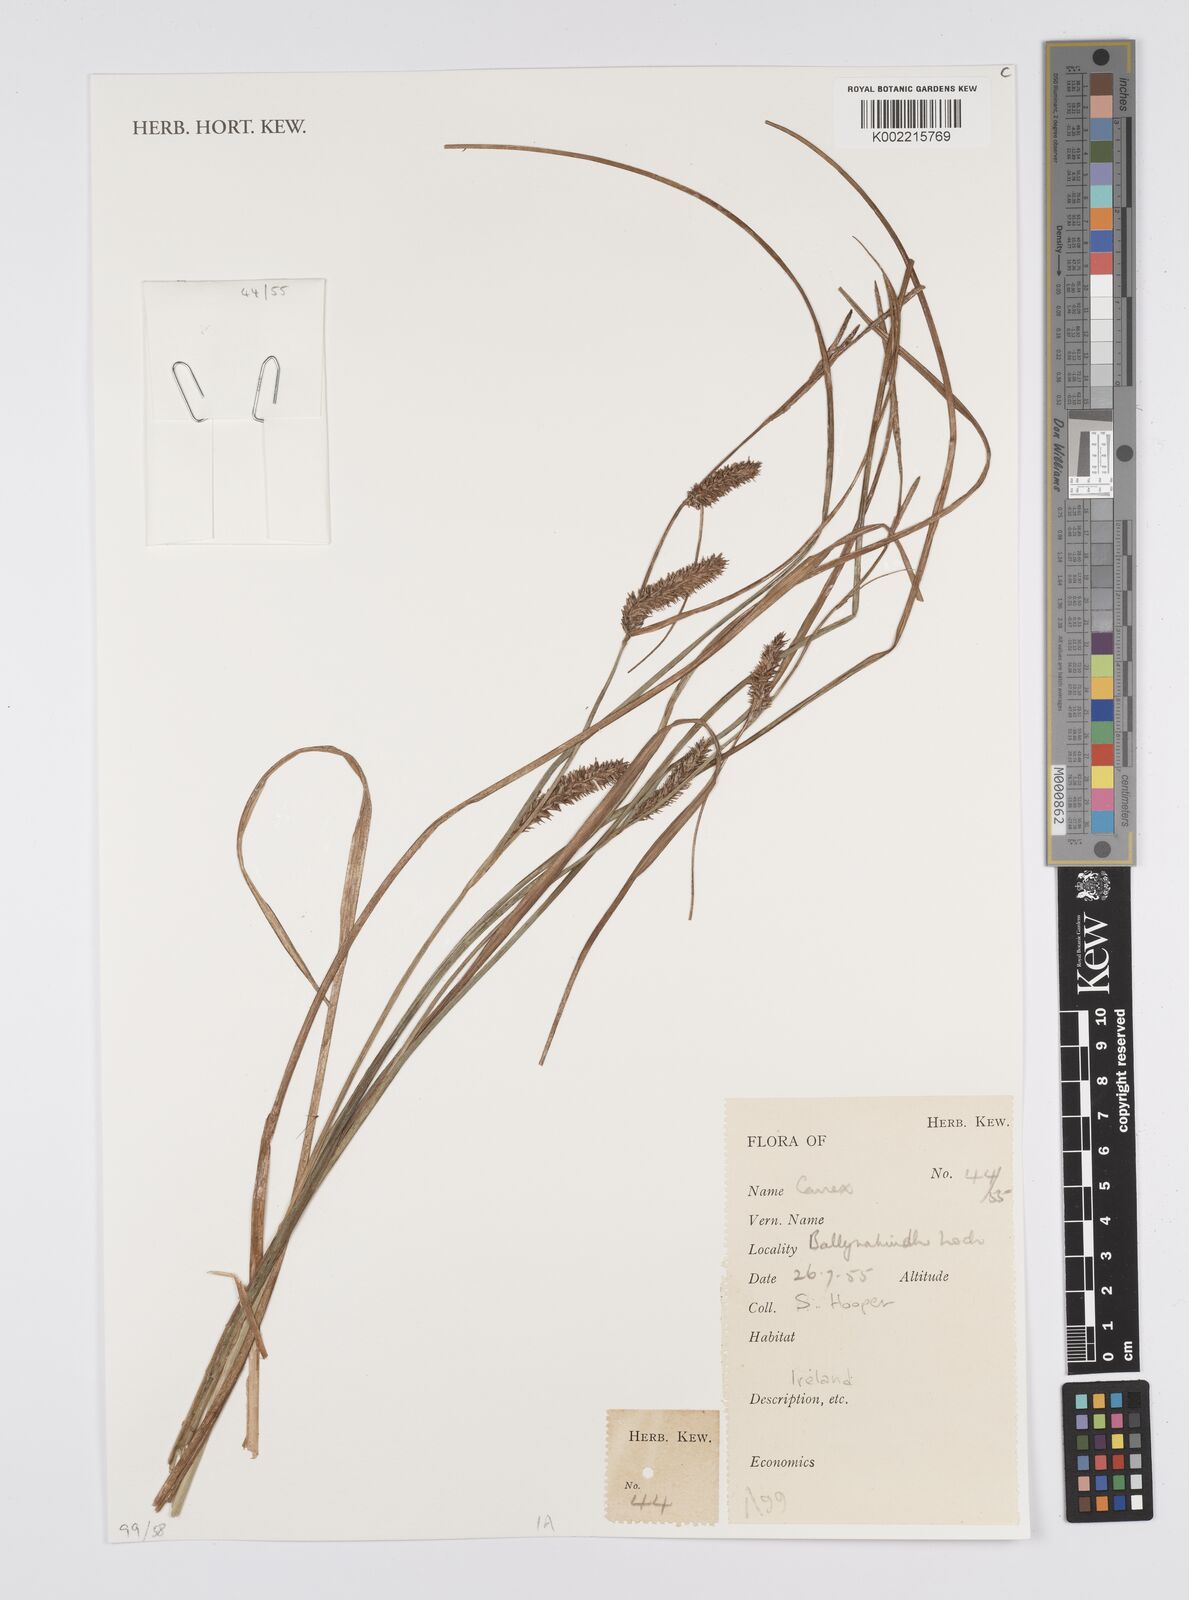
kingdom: Plantae
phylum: Tracheophyta
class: Liliopsida
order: Poales
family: Cyperaceae
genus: Carex
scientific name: Carex
